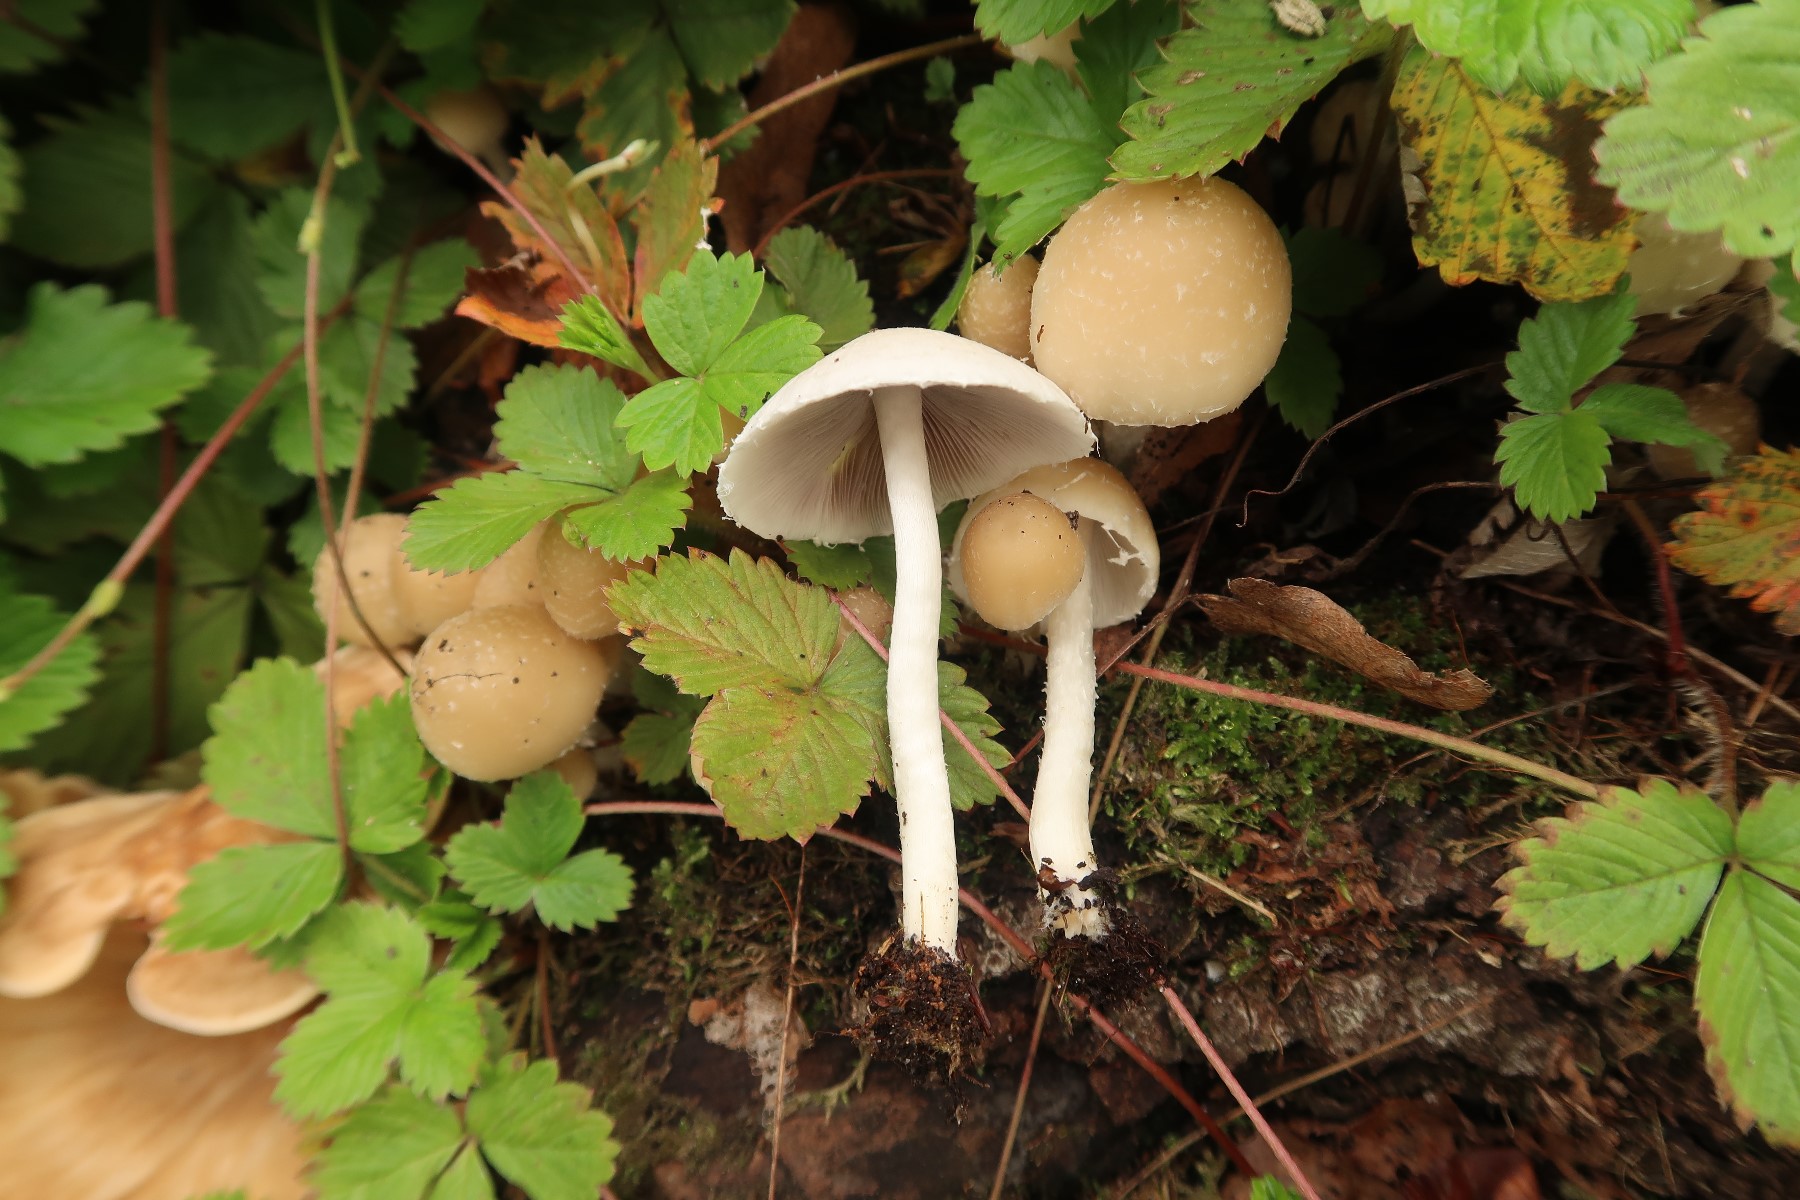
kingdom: Fungi
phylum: Basidiomycota
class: Agaricomycetes
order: Agaricales
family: Psathyrellaceae
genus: Candolleomyces
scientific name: Candolleomyces candolleanus
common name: Candolles mørkhat
